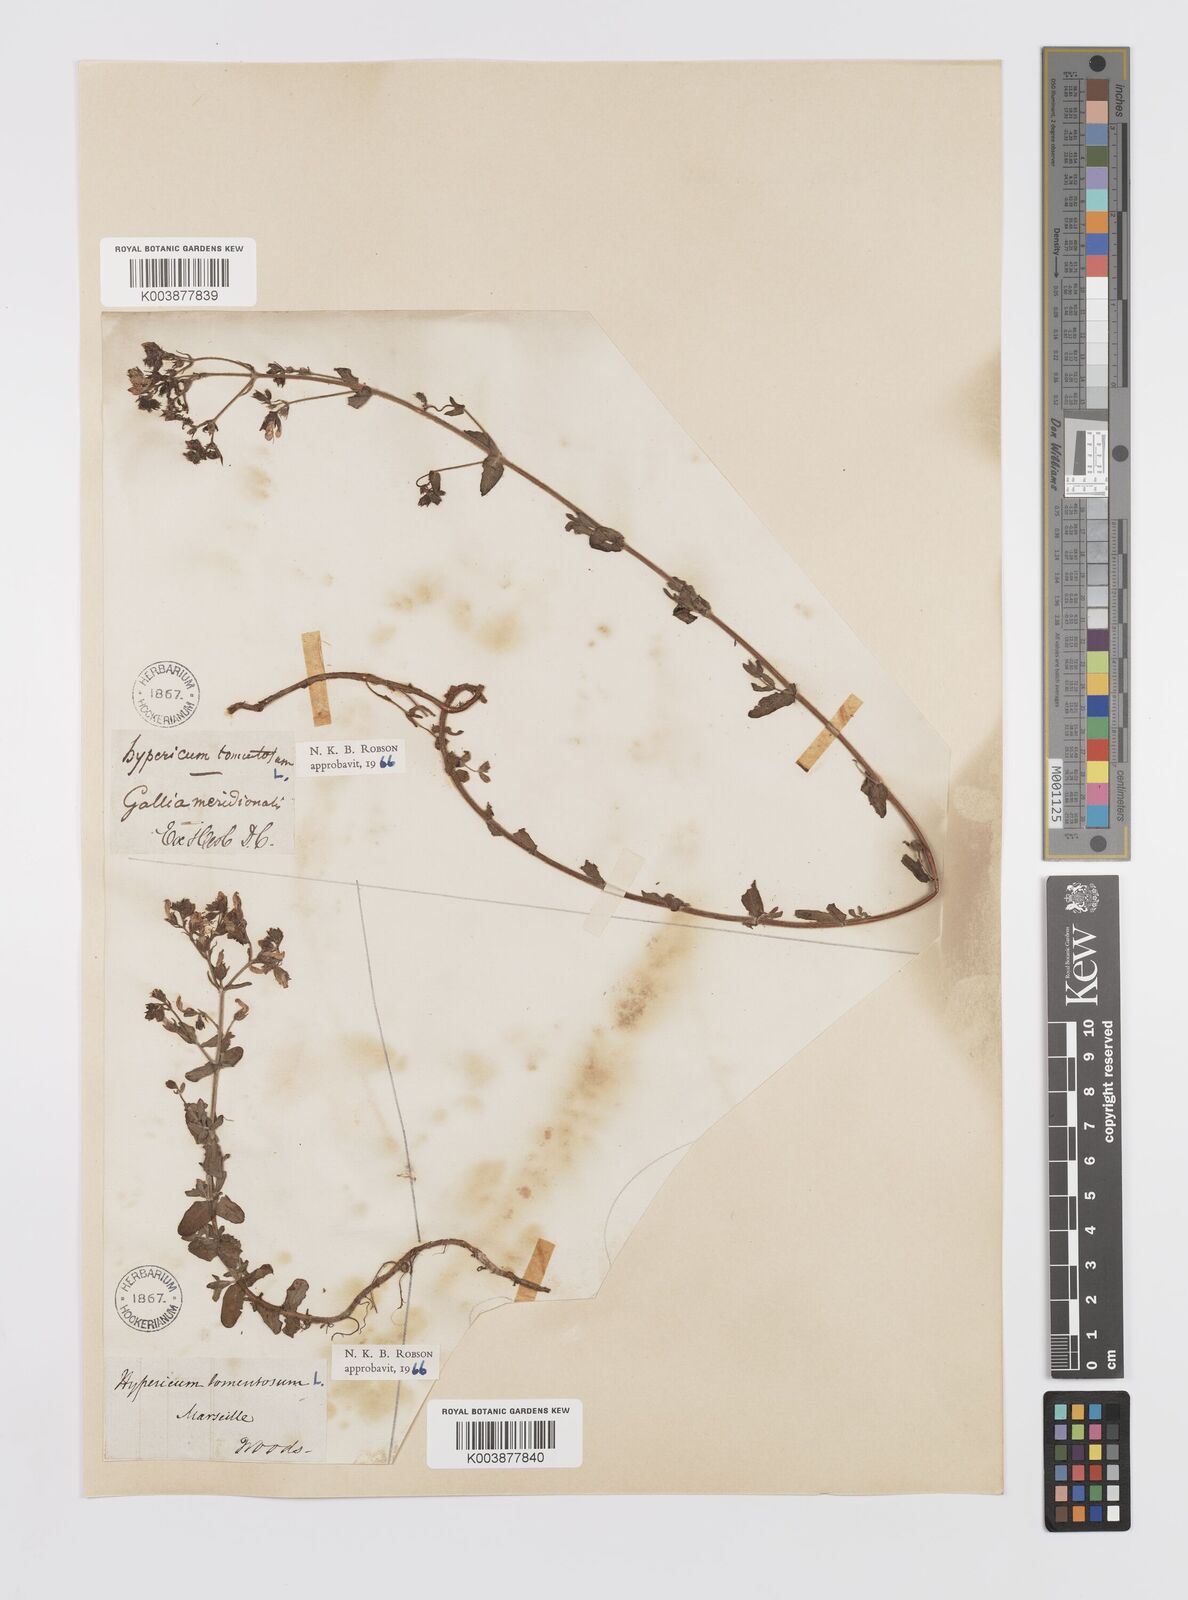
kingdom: Plantae
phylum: Tracheophyta
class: Magnoliopsida
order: Malpighiales
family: Hypericaceae
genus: Hypericum
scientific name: Hypericum tomentosum
